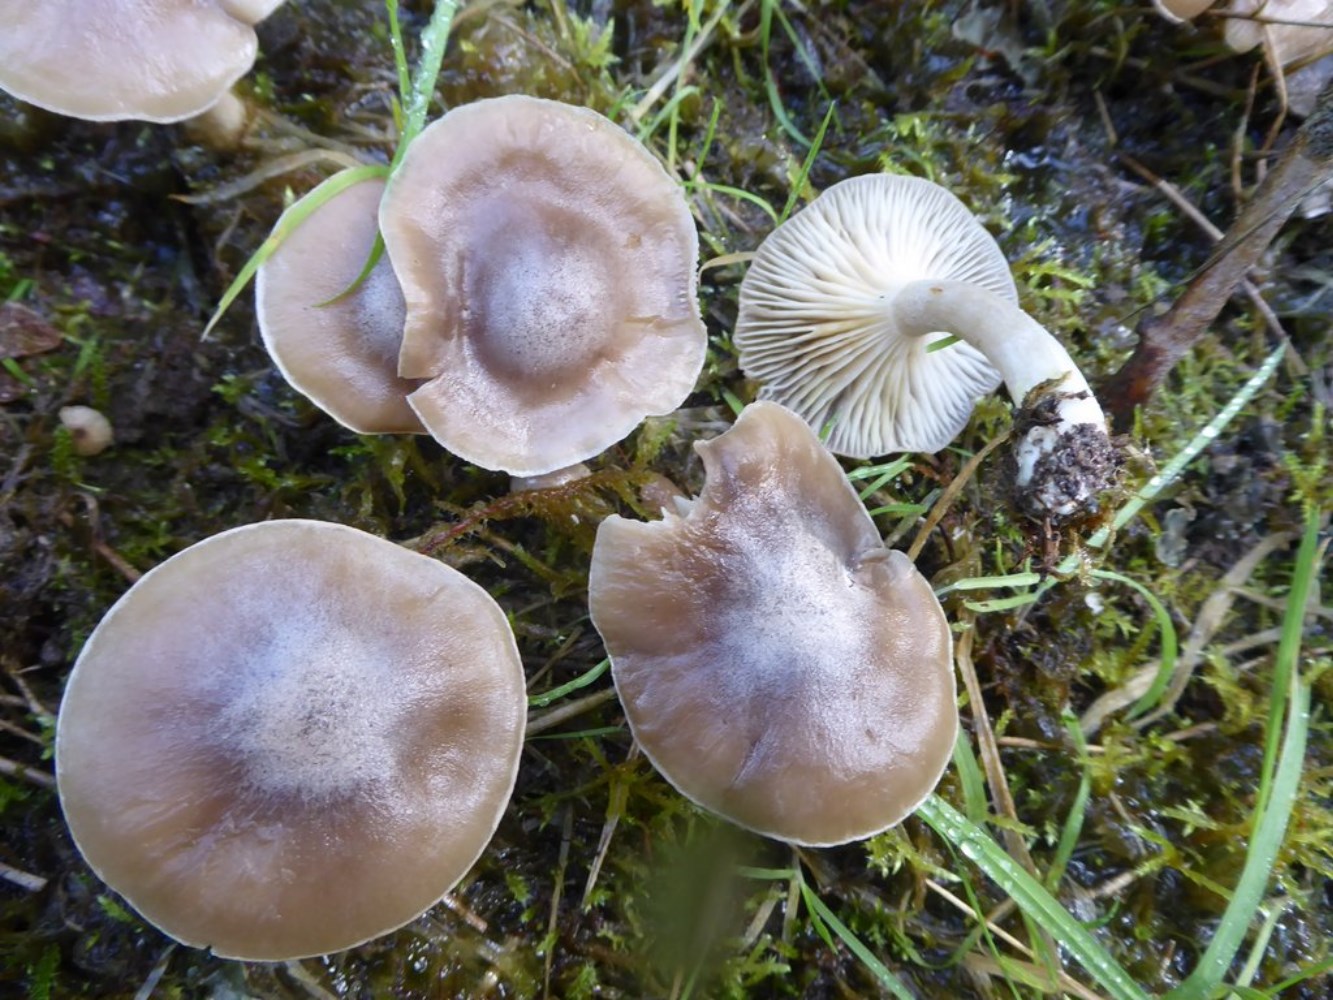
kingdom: Fungi
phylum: Basidiomycota
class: Agaricomycetes
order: Agaricales
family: Hygrophoraceae
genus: Ampulloclitocybe
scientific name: Ampulloclitocybe clavipes
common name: køllefod
